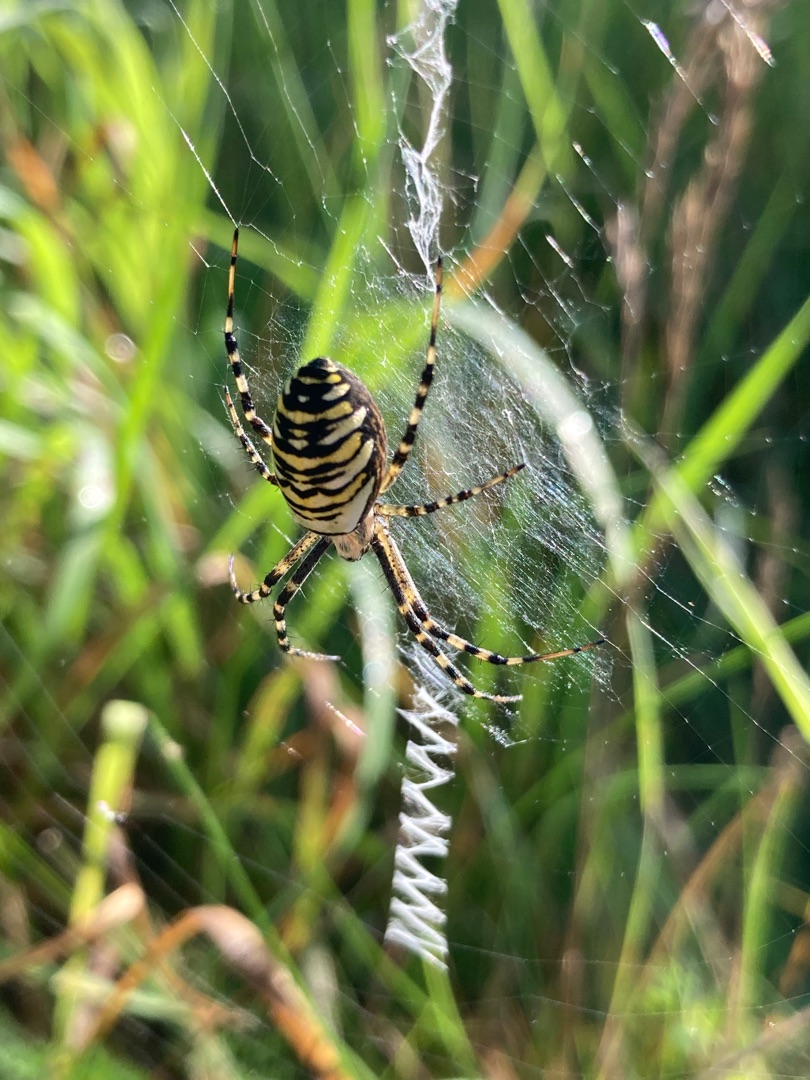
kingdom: Animalia
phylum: Arthropoda
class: Arachnida
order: Araneae
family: Araneidae
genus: Argiope
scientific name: Argiope bruennichi
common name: Hvepseedderkop
